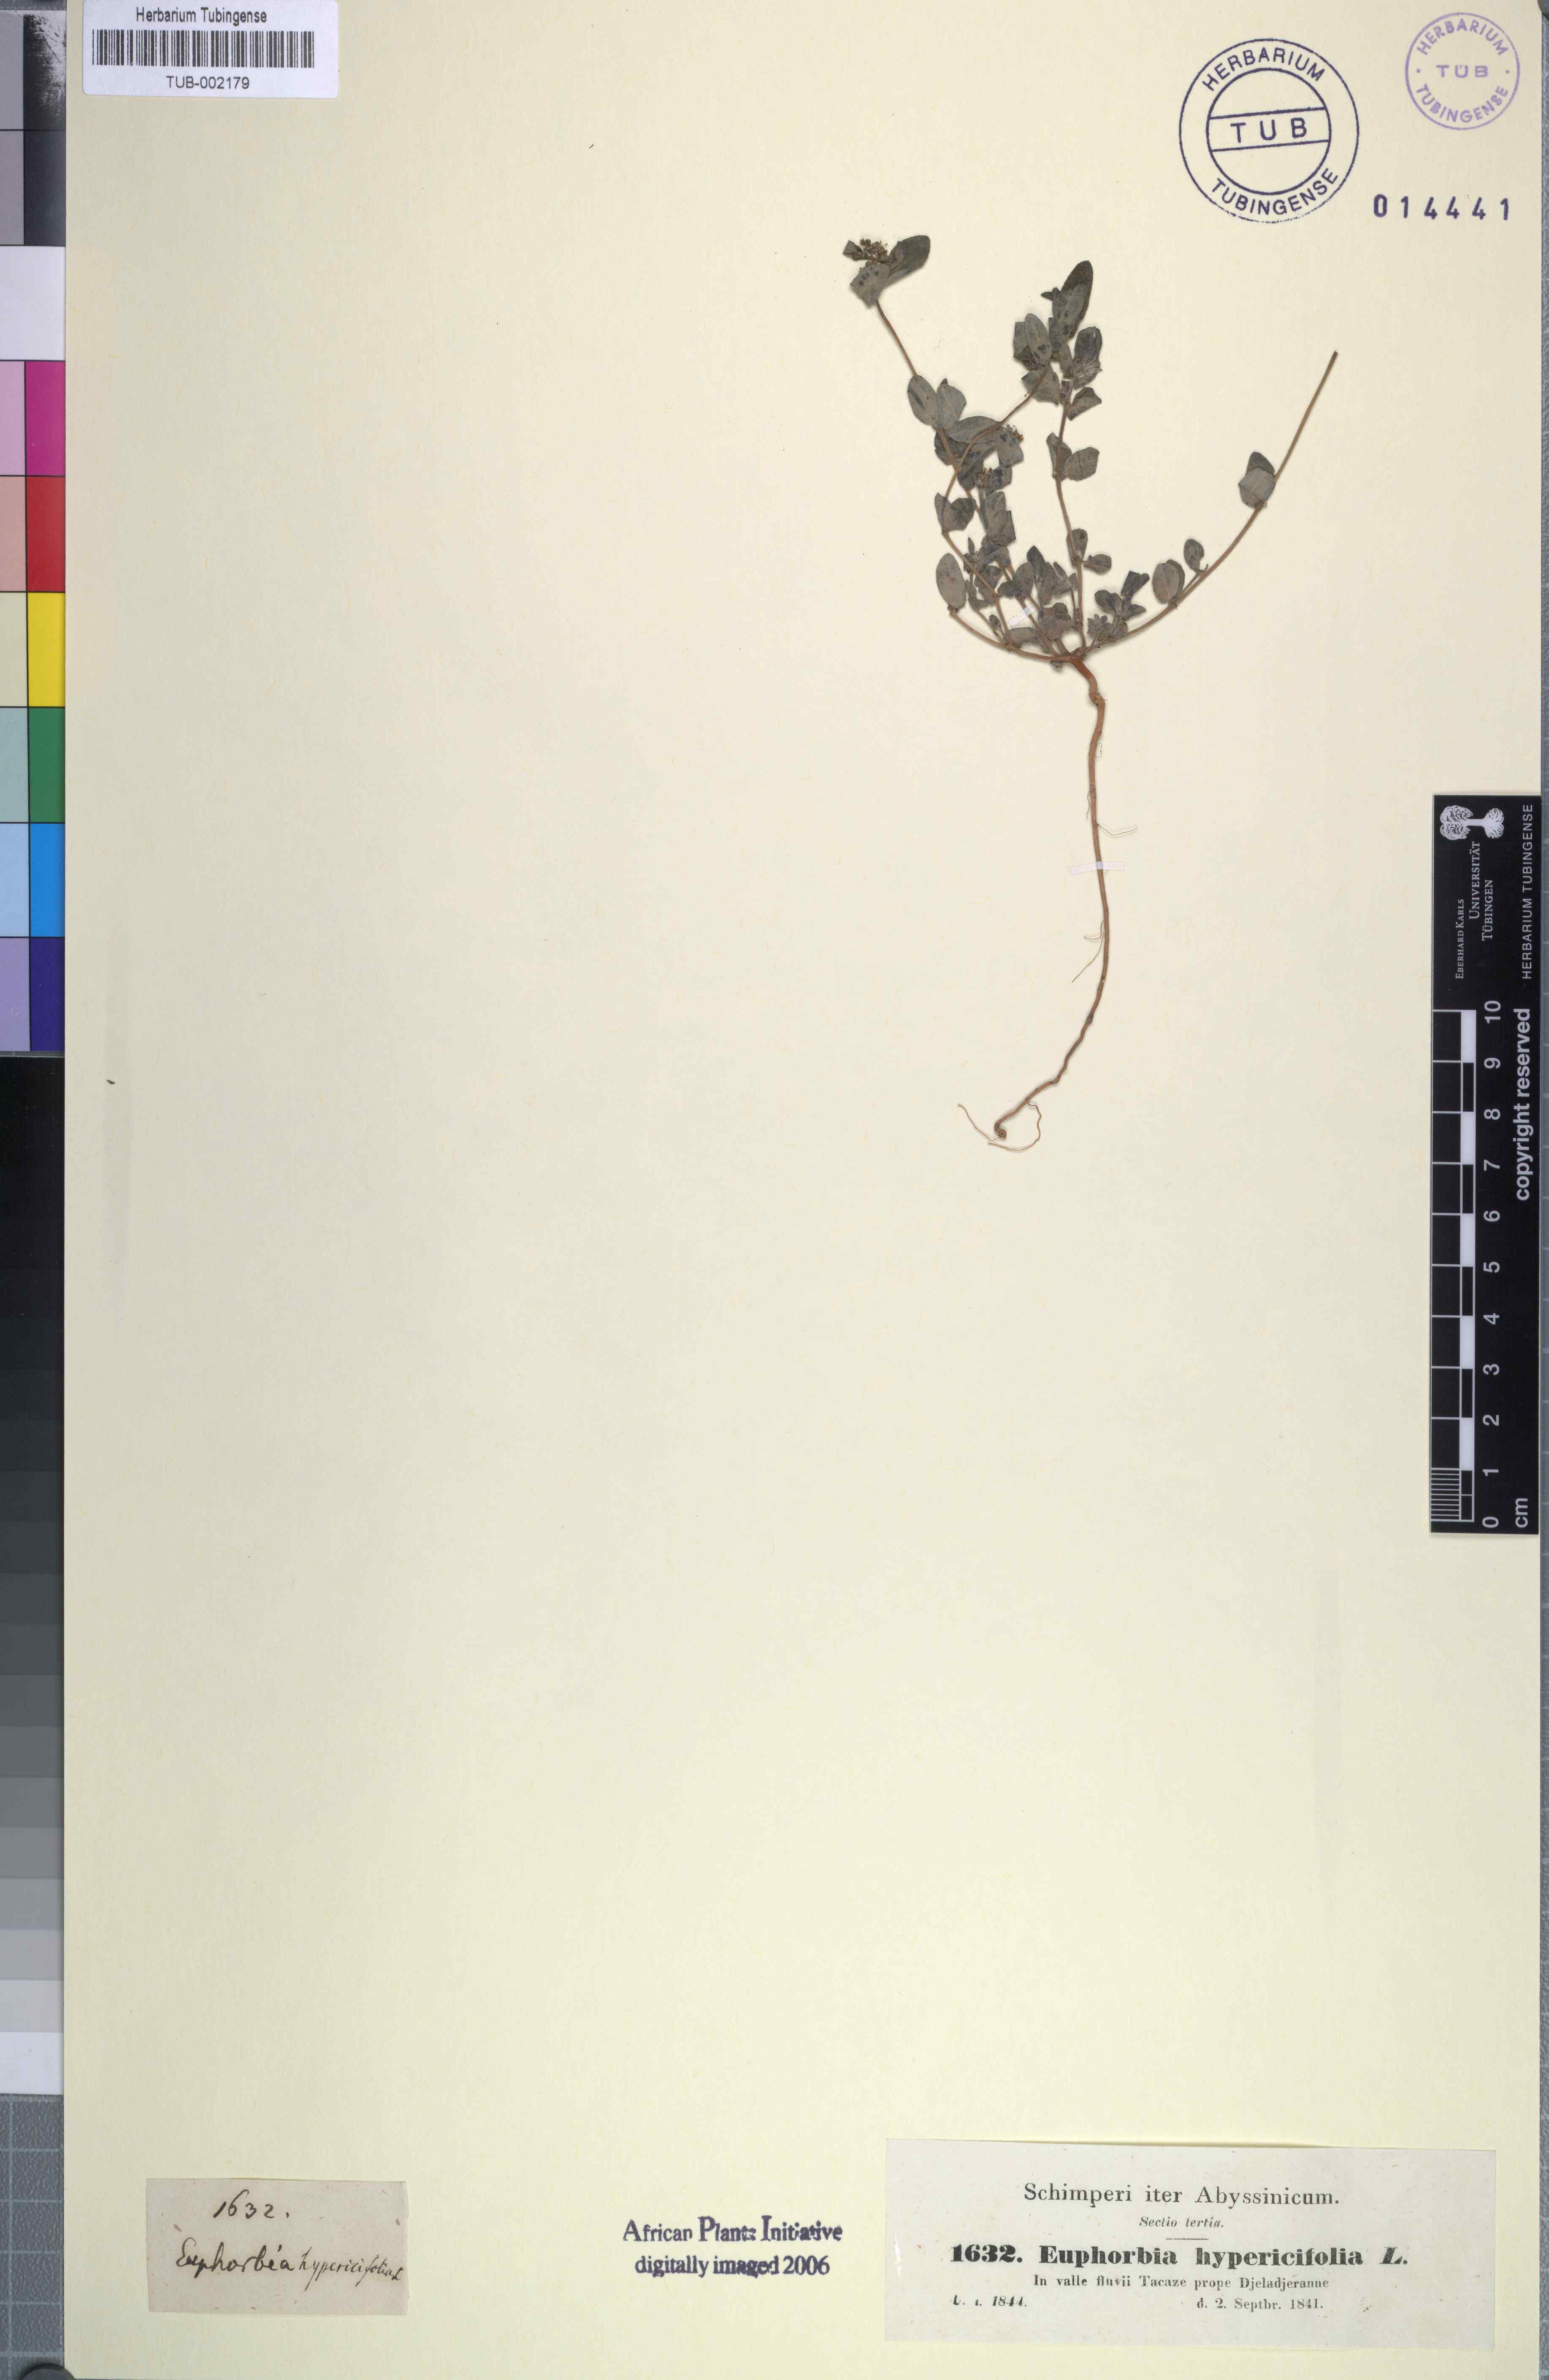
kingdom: Plantae
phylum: Tracheophyta
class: Magnoliopsida
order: Malpighiales
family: Euphorbiaceae
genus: Euphorbia
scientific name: Euphorbia indica
